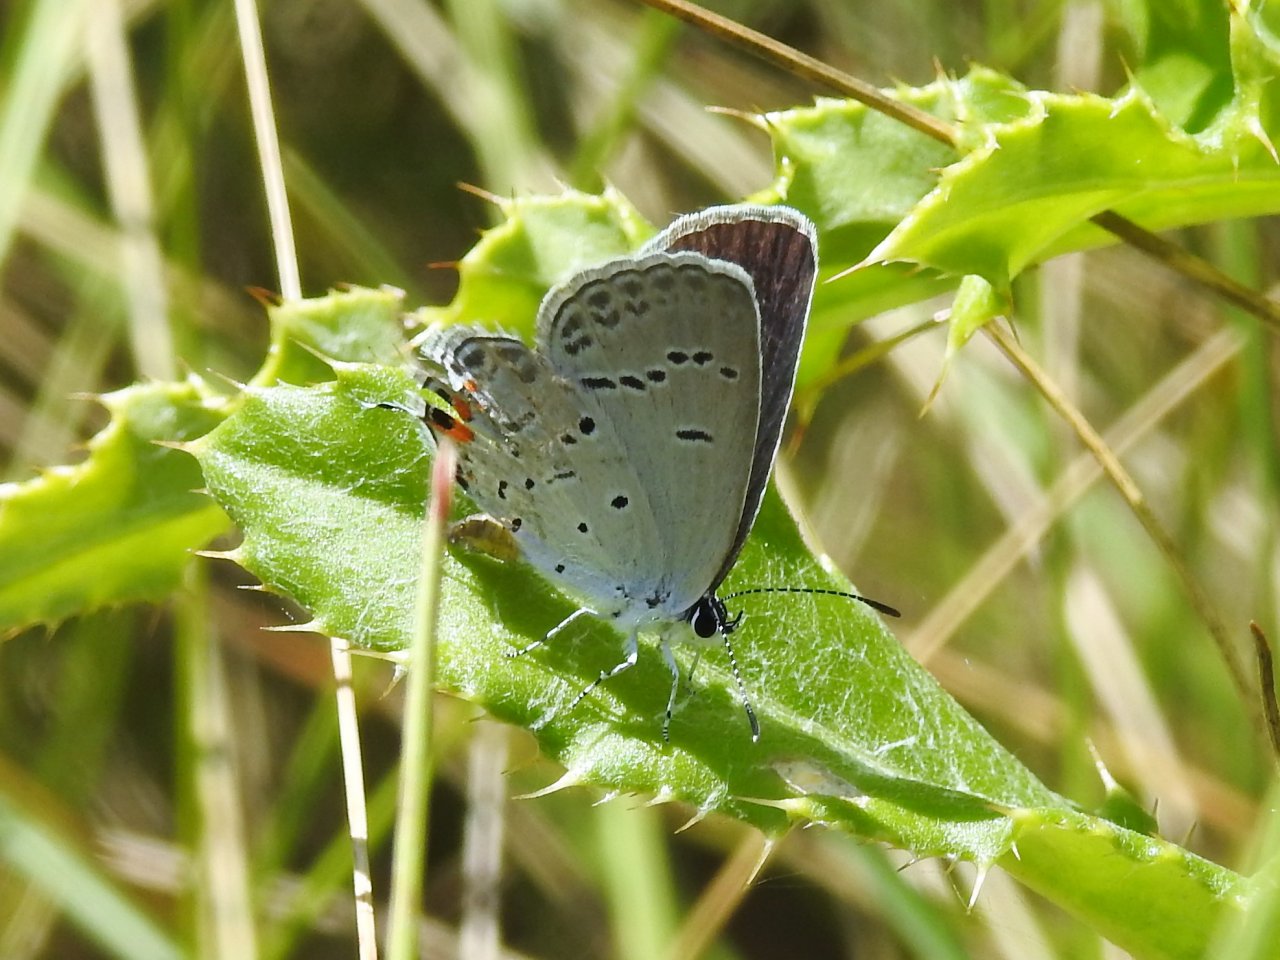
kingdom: Animalia
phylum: Arthropoda
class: Insecta
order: Lepidoptera
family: Lycaenidae
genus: Elkalyce
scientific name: Elkalyce comyntas
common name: Eastern Tailed-Blue
